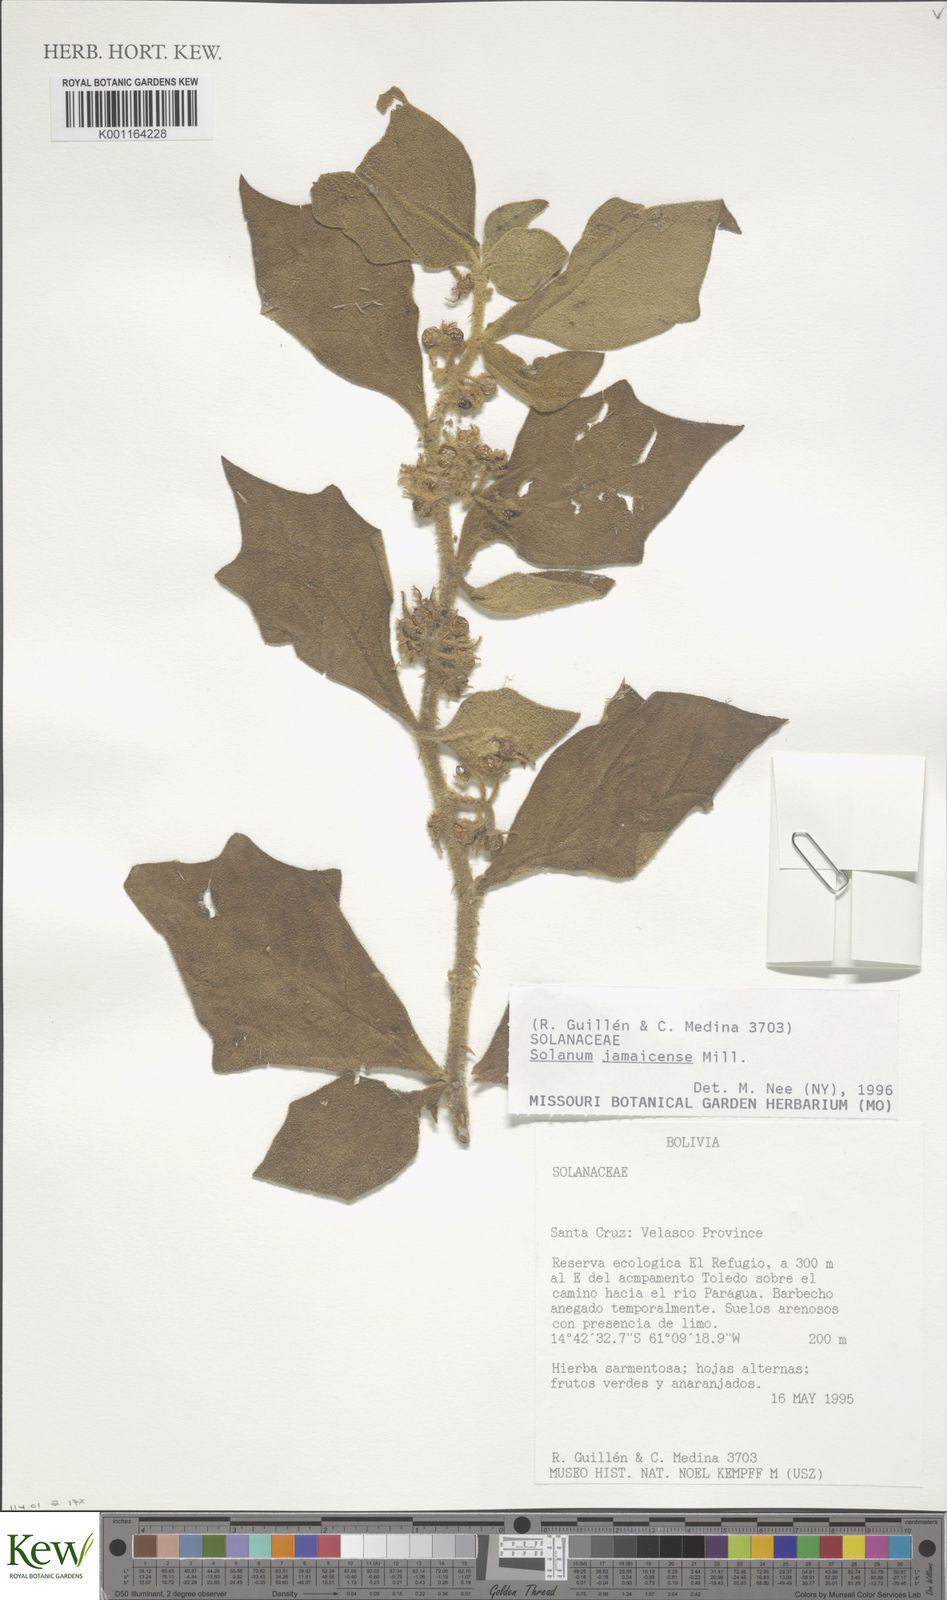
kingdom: Plantae
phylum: Tracheophyta
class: Magnoliopsida
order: Solanales
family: Solanaceae
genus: Solanum
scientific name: Solanum jamaicense
